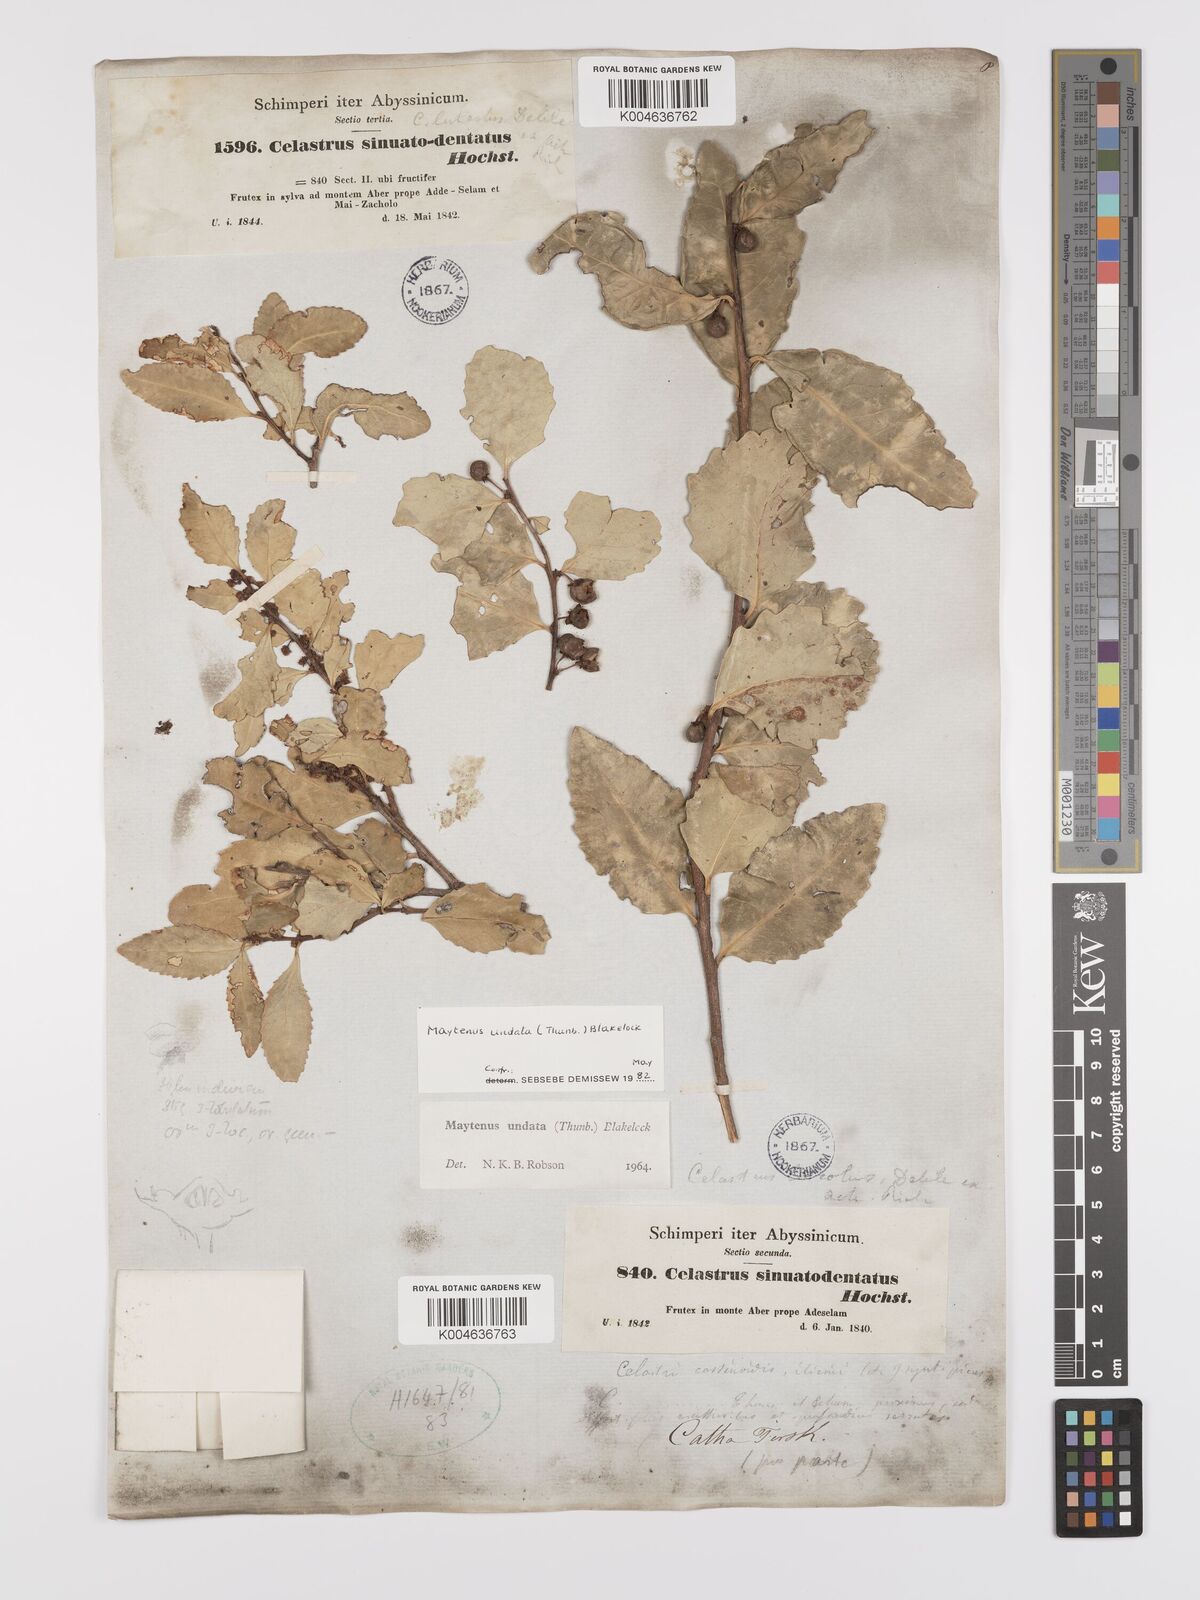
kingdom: Plantae
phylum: Tracheophyta
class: Magnoliopsida
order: Celastrales
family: Celastraceae
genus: Gymnosporia
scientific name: Gymnosporia undata
